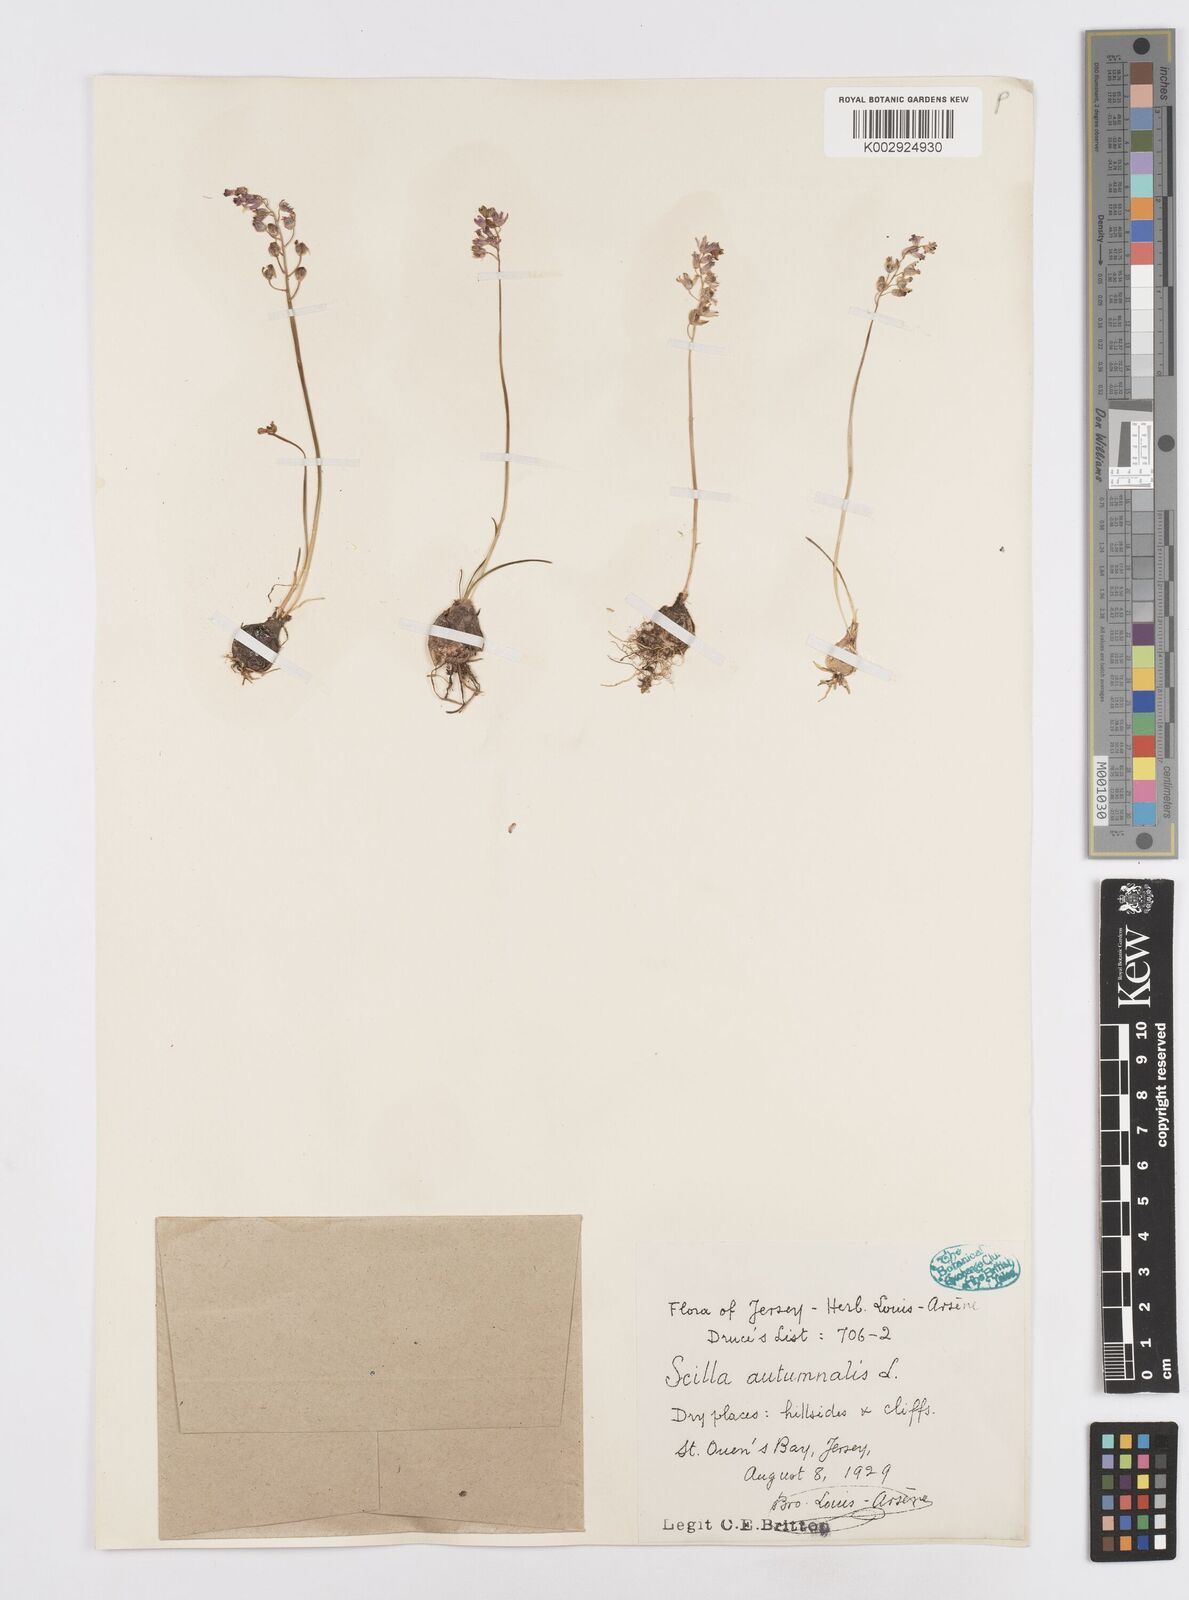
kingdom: Plantae
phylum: Tracheophyta
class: Liliopsida
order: Asparagales
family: Asparagaceae
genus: Prospero
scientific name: Prospero autumnale
